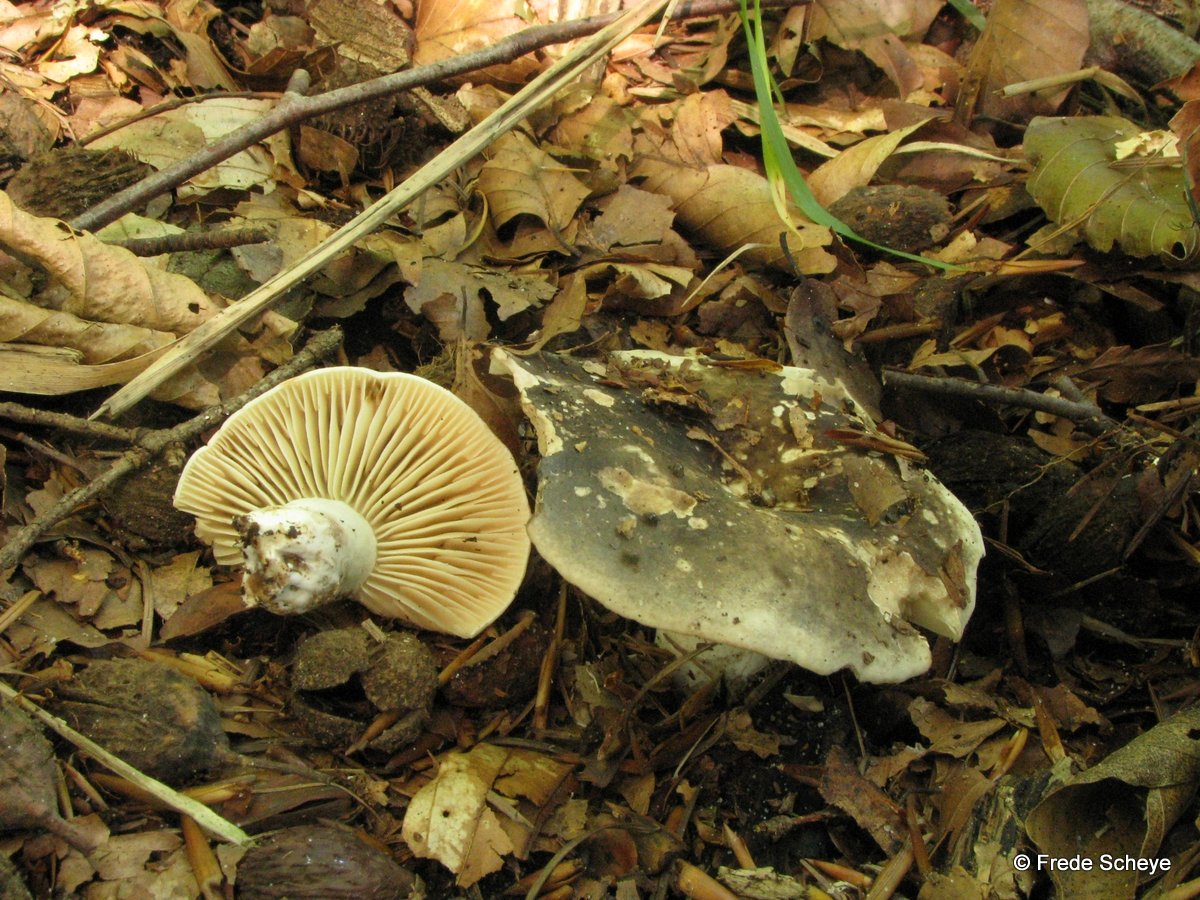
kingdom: Fungi
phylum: Basidiomycota
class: Agaricomycetes
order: Russulales
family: Russulaceae
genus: Russula
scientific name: Russula adusta
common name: sværtende skørhat
